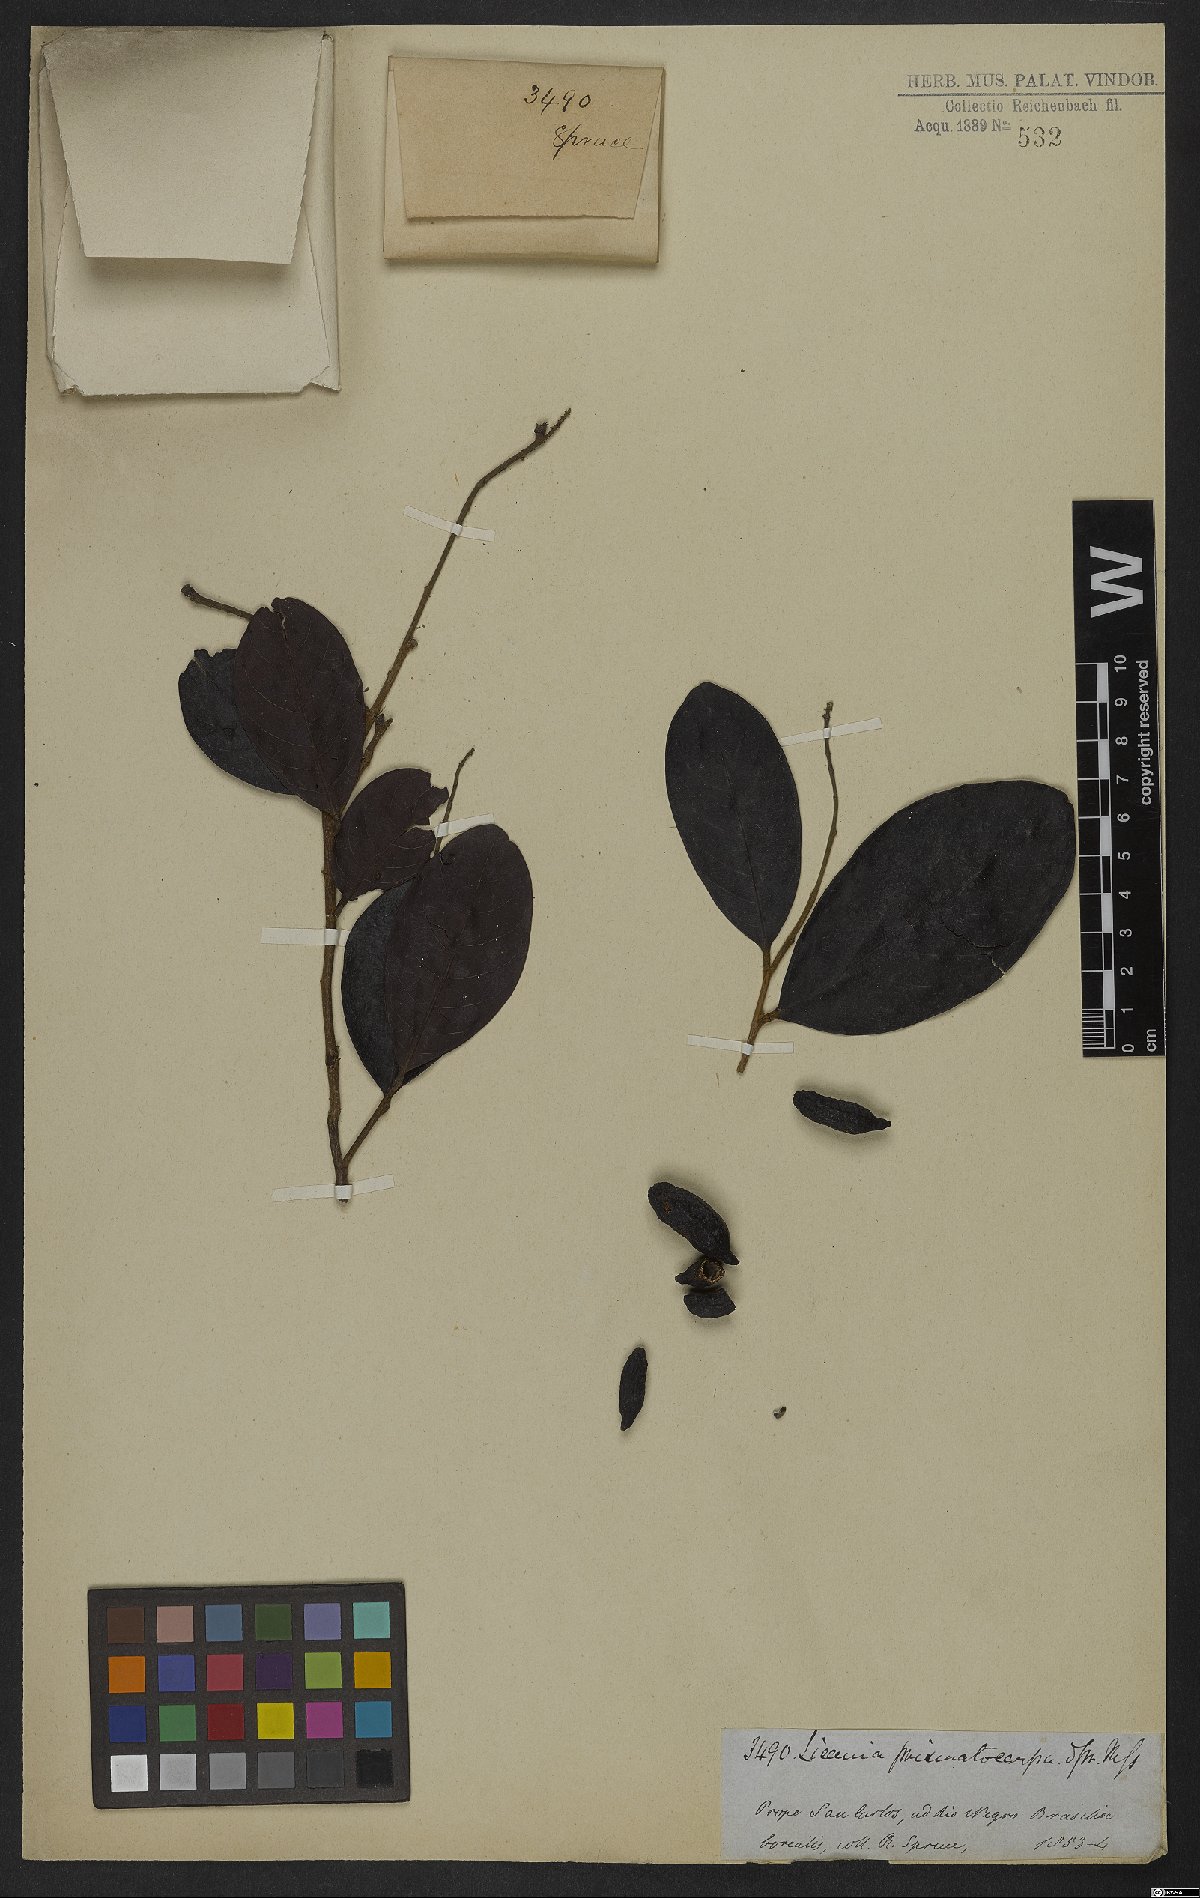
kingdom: Plantae
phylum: Tracheophyta
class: Magnoliopsida
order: Malpighiales
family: Chrysobalanaceae
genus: Hymenopus
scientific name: Hymenopus prismatocarpus
